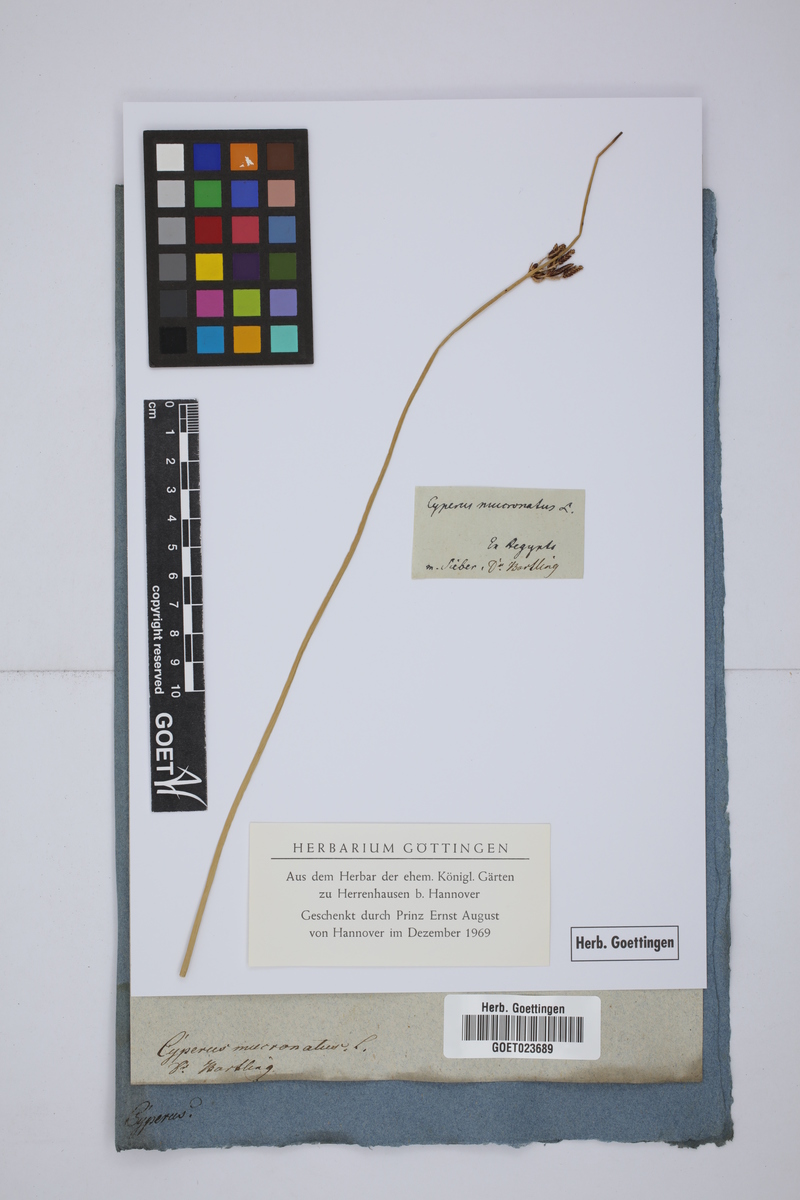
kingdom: Plantae
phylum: Tracheophyta
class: Liliopsida
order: Poales
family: Cyperaceae
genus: Cyperus
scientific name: Cyperus laevigatus
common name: Smooth flat sedge
